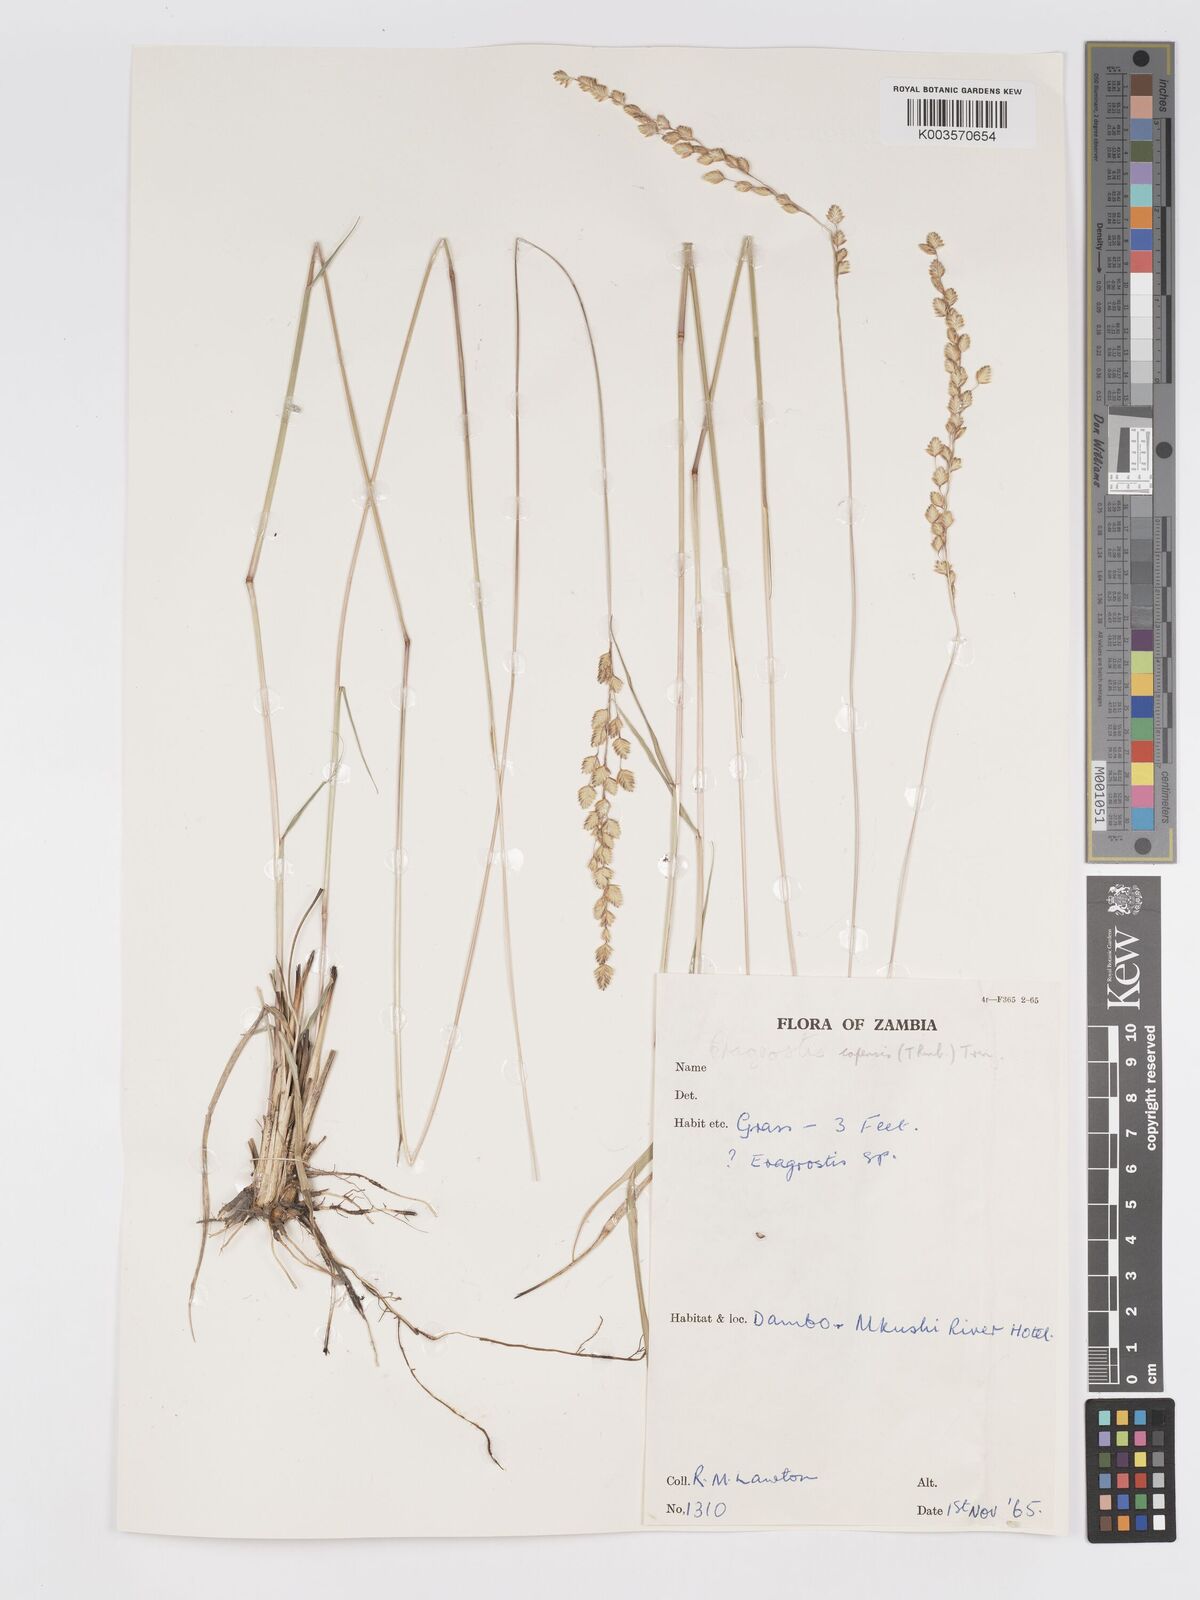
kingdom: Plantae
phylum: Tracheophyta
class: Liliopsida
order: Poales
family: Poaceae
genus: Eragrostis
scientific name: Eragrostis capensis
